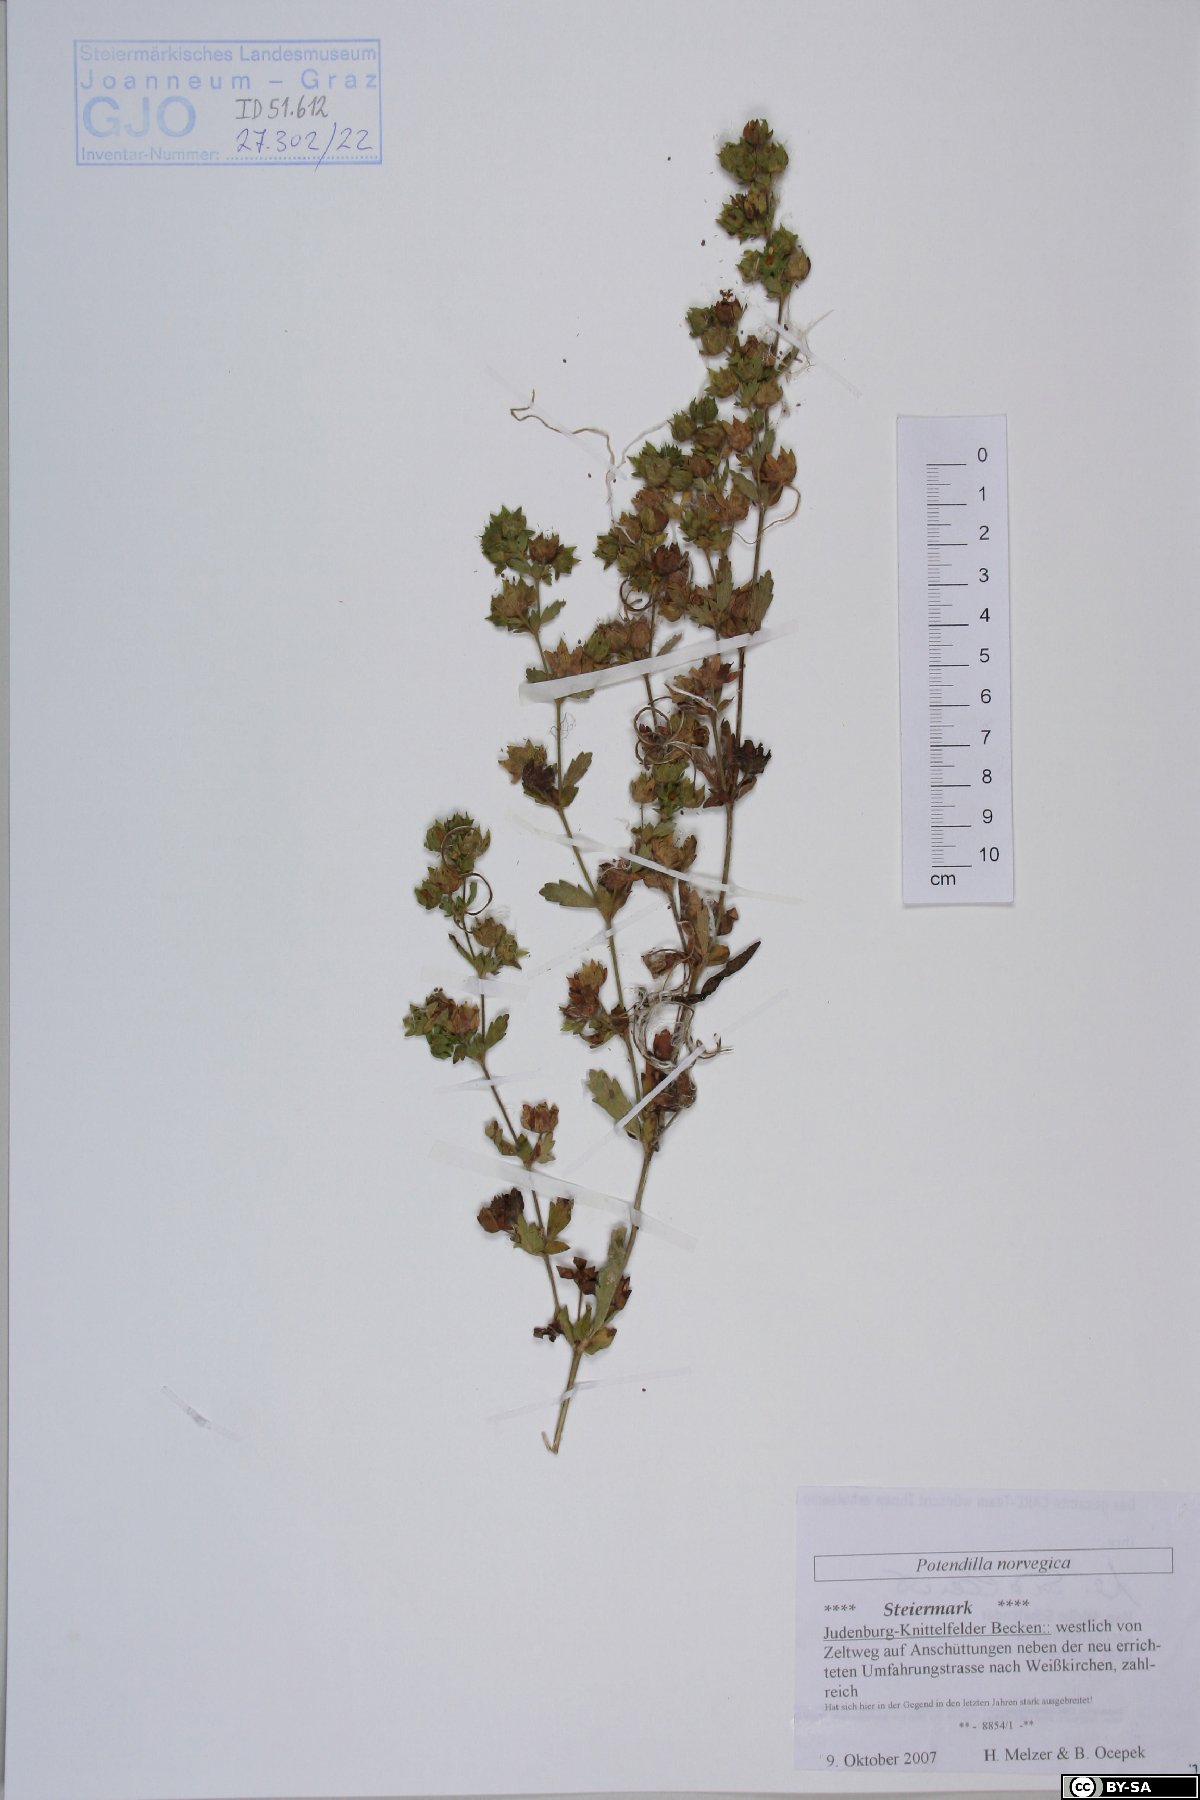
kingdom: Plantae
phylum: Tracheophyta
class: Magnoliopsida
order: Rosales
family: Rosaceae
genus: Potentilla
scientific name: Potentilla norvegica
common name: Ternate-leaved cinquefoil
